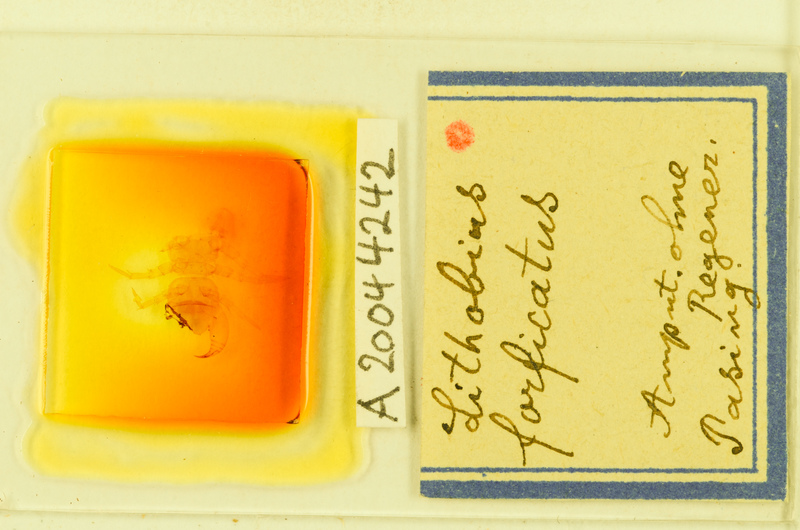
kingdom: Animalia
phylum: Arthropoda
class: Chilopoda
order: Lithobiomorpha
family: Lithobiidae
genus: Lithobius
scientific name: Lithobius forficatus
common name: Centipede
